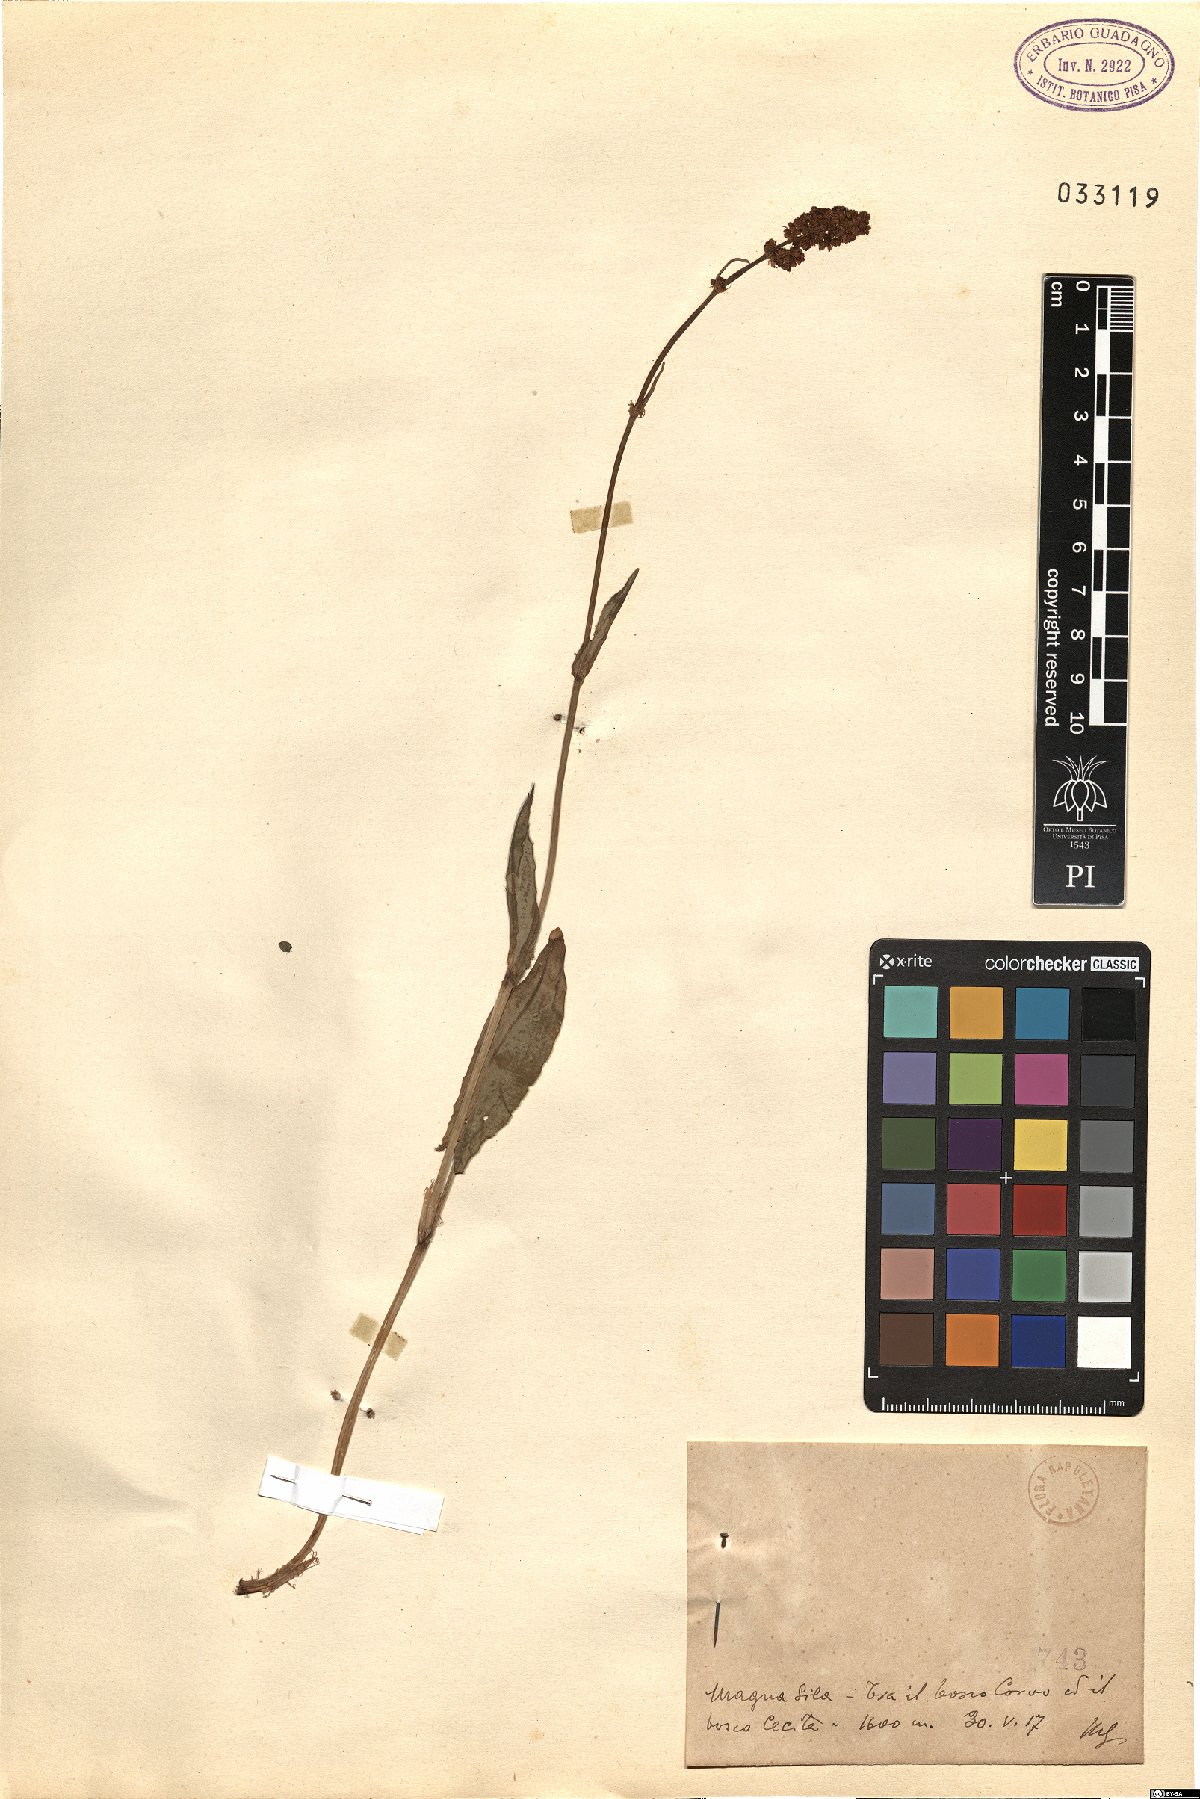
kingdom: Plantae
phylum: Tracheophyta
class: Magnoliopsida
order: Caryophyllales
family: Polygonaceae
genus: Rumex
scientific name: Rumex
